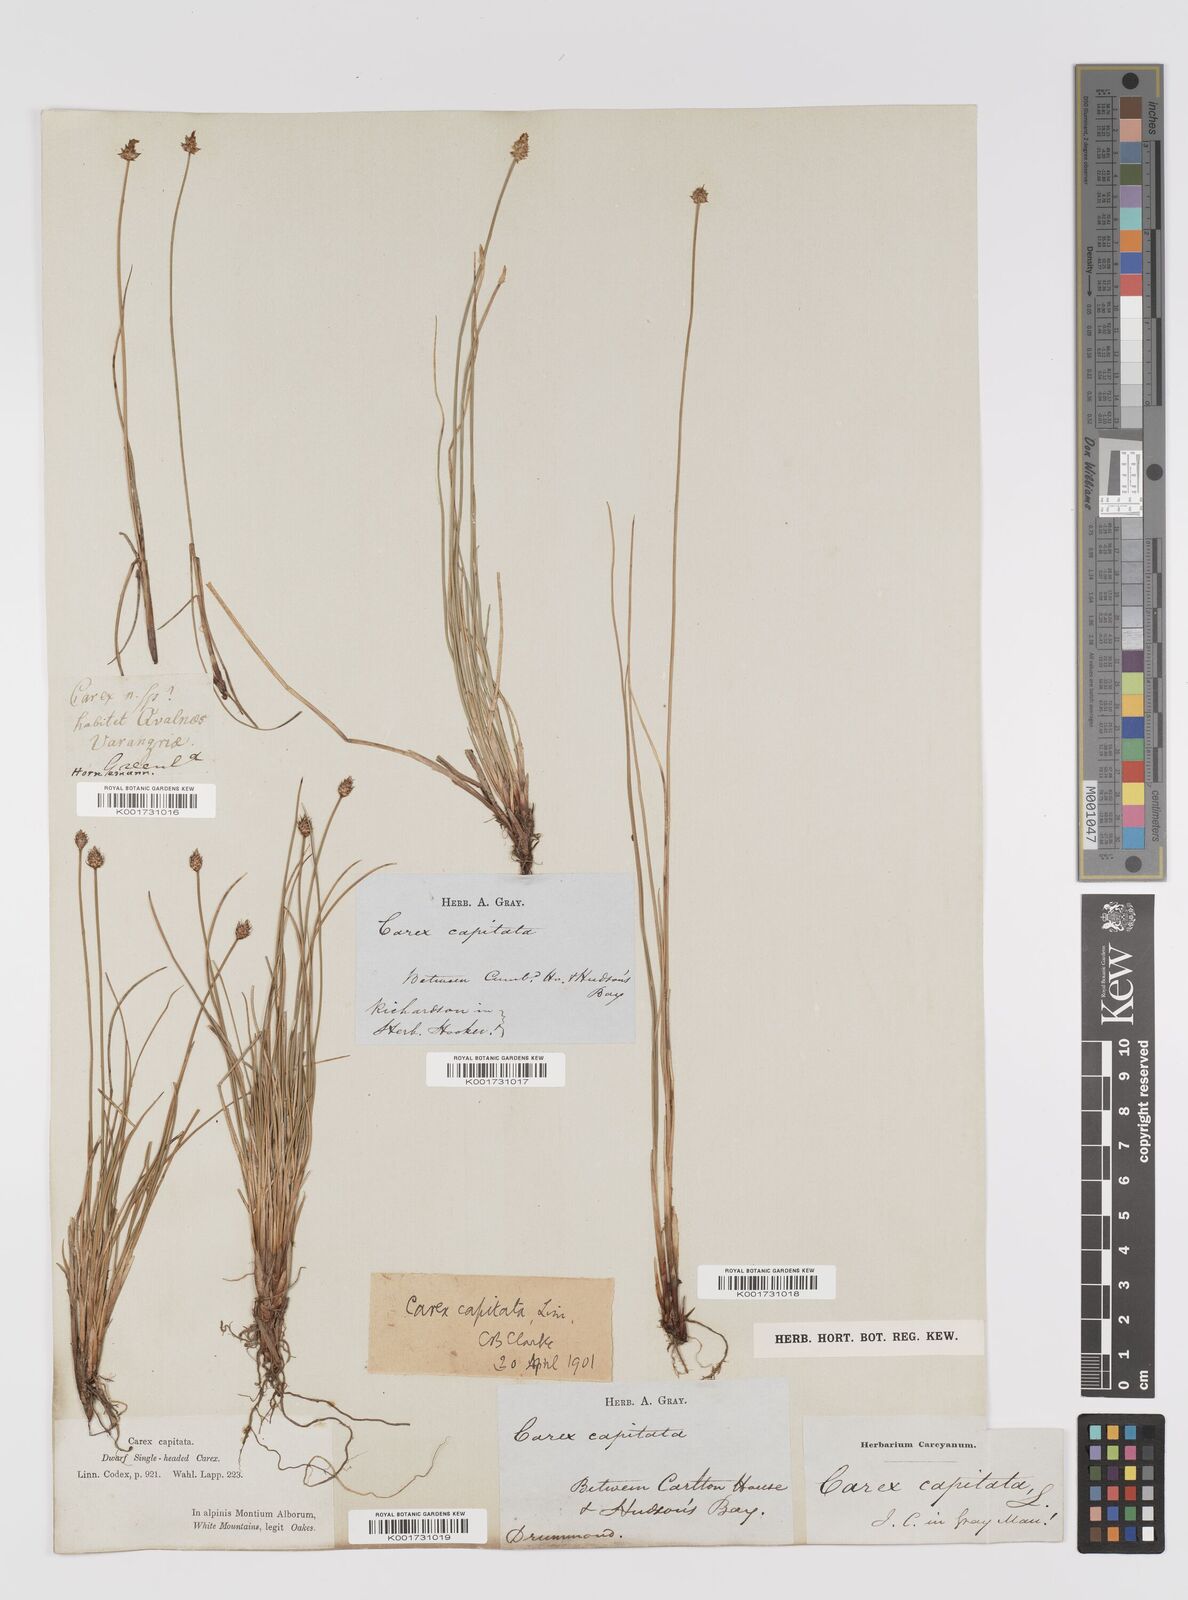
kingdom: Plantae
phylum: Tracheophyta
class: Liliopsida
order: Poales
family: Cyperaceae
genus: Carex
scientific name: Carex capitata
